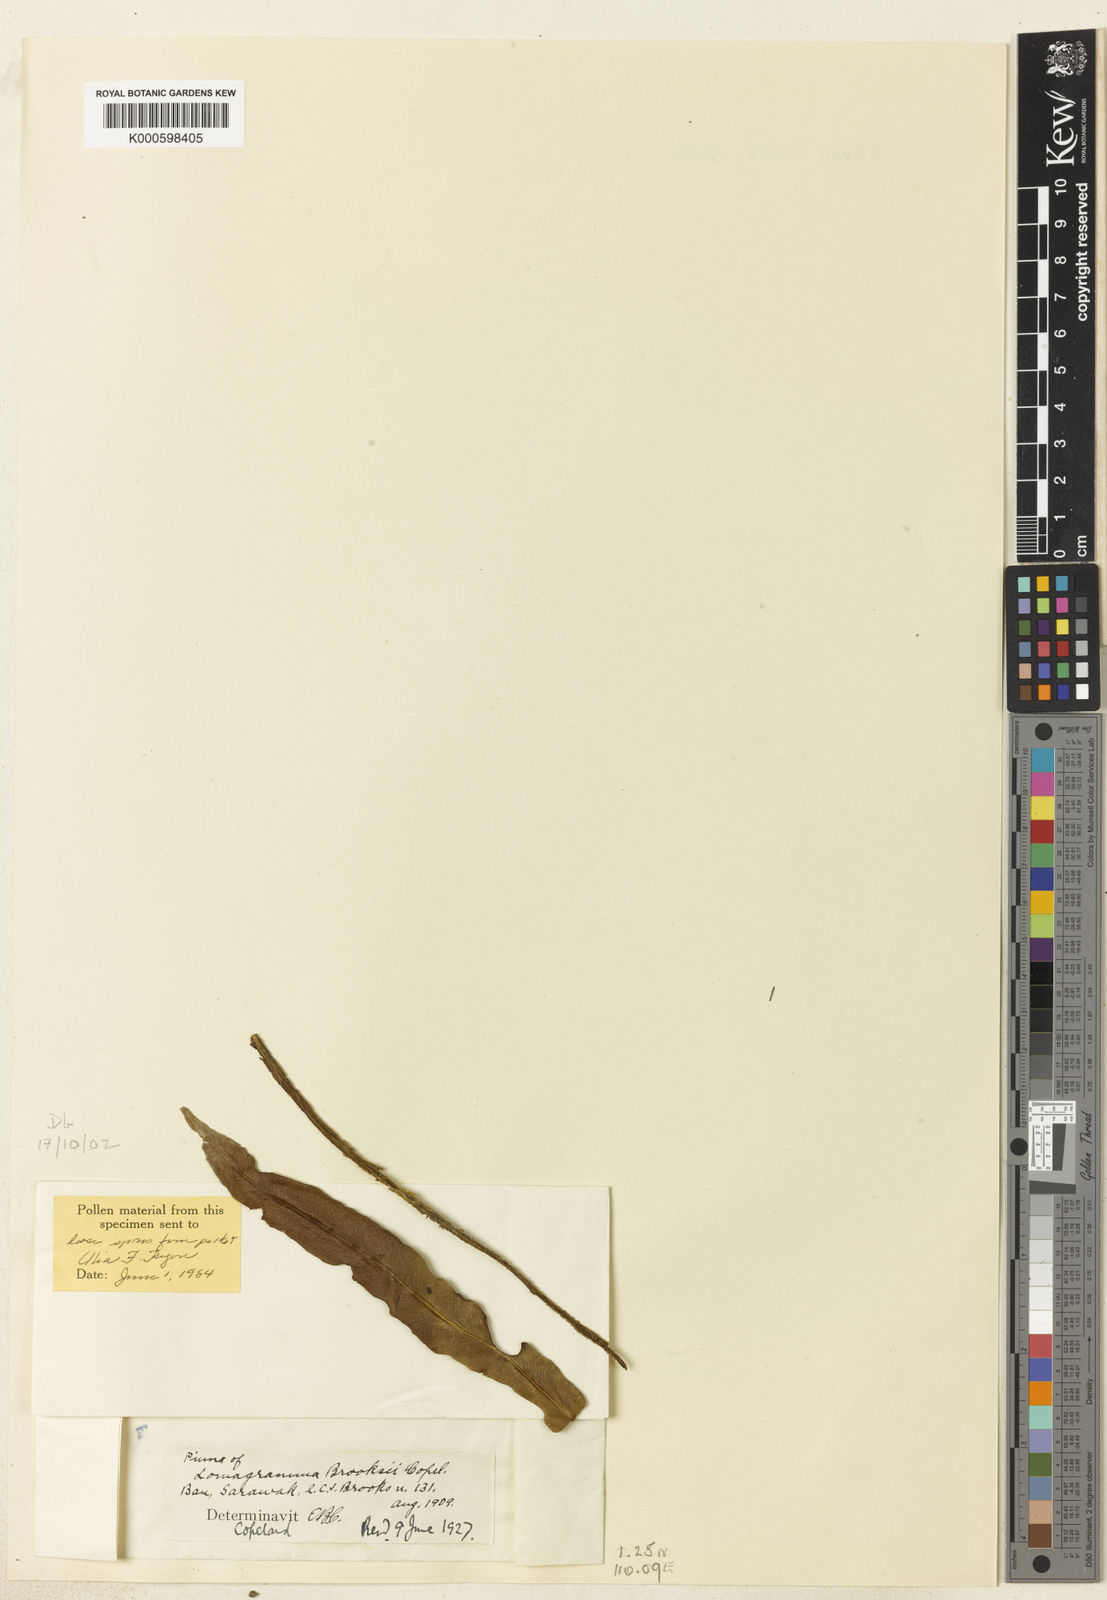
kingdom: Plantae
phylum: Tracheophyta
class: Polypodiopsida
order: Polypodiales
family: Dryopteridaceae
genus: Lomagramma
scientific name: Lomagramma brooksii
